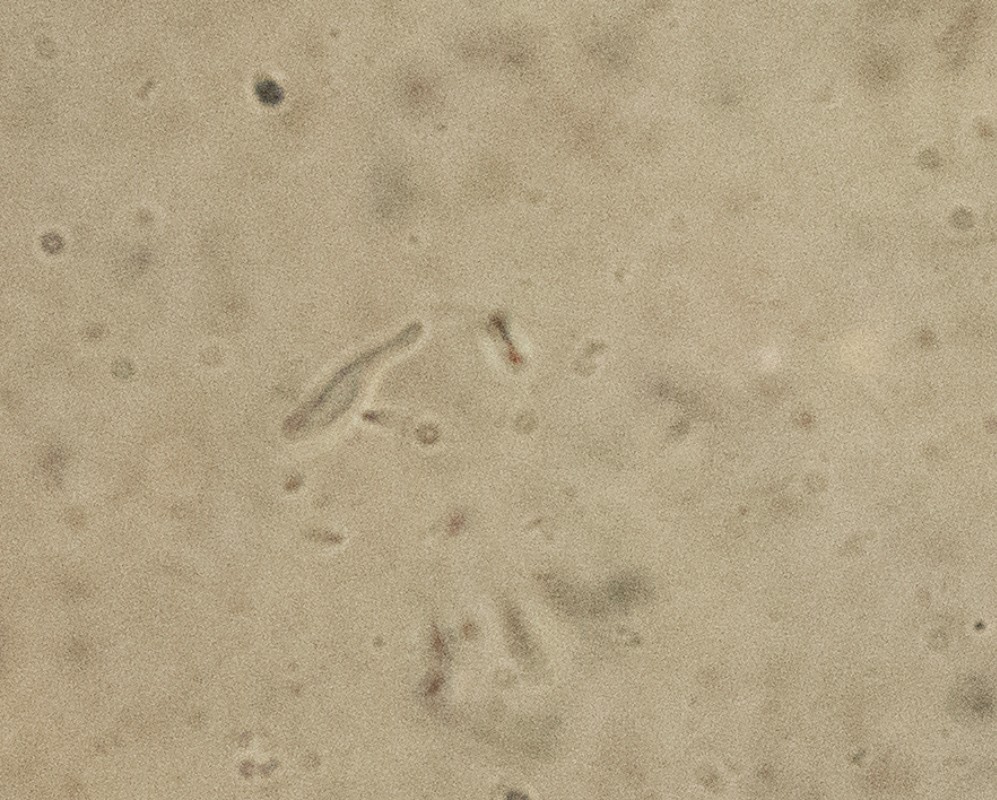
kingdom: Fungi
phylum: Ascomycota
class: Orbiliomycetes
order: Orbiliales
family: Orbiliaceae
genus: Orbilia
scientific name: Orbilia comma
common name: komma-voksskive
